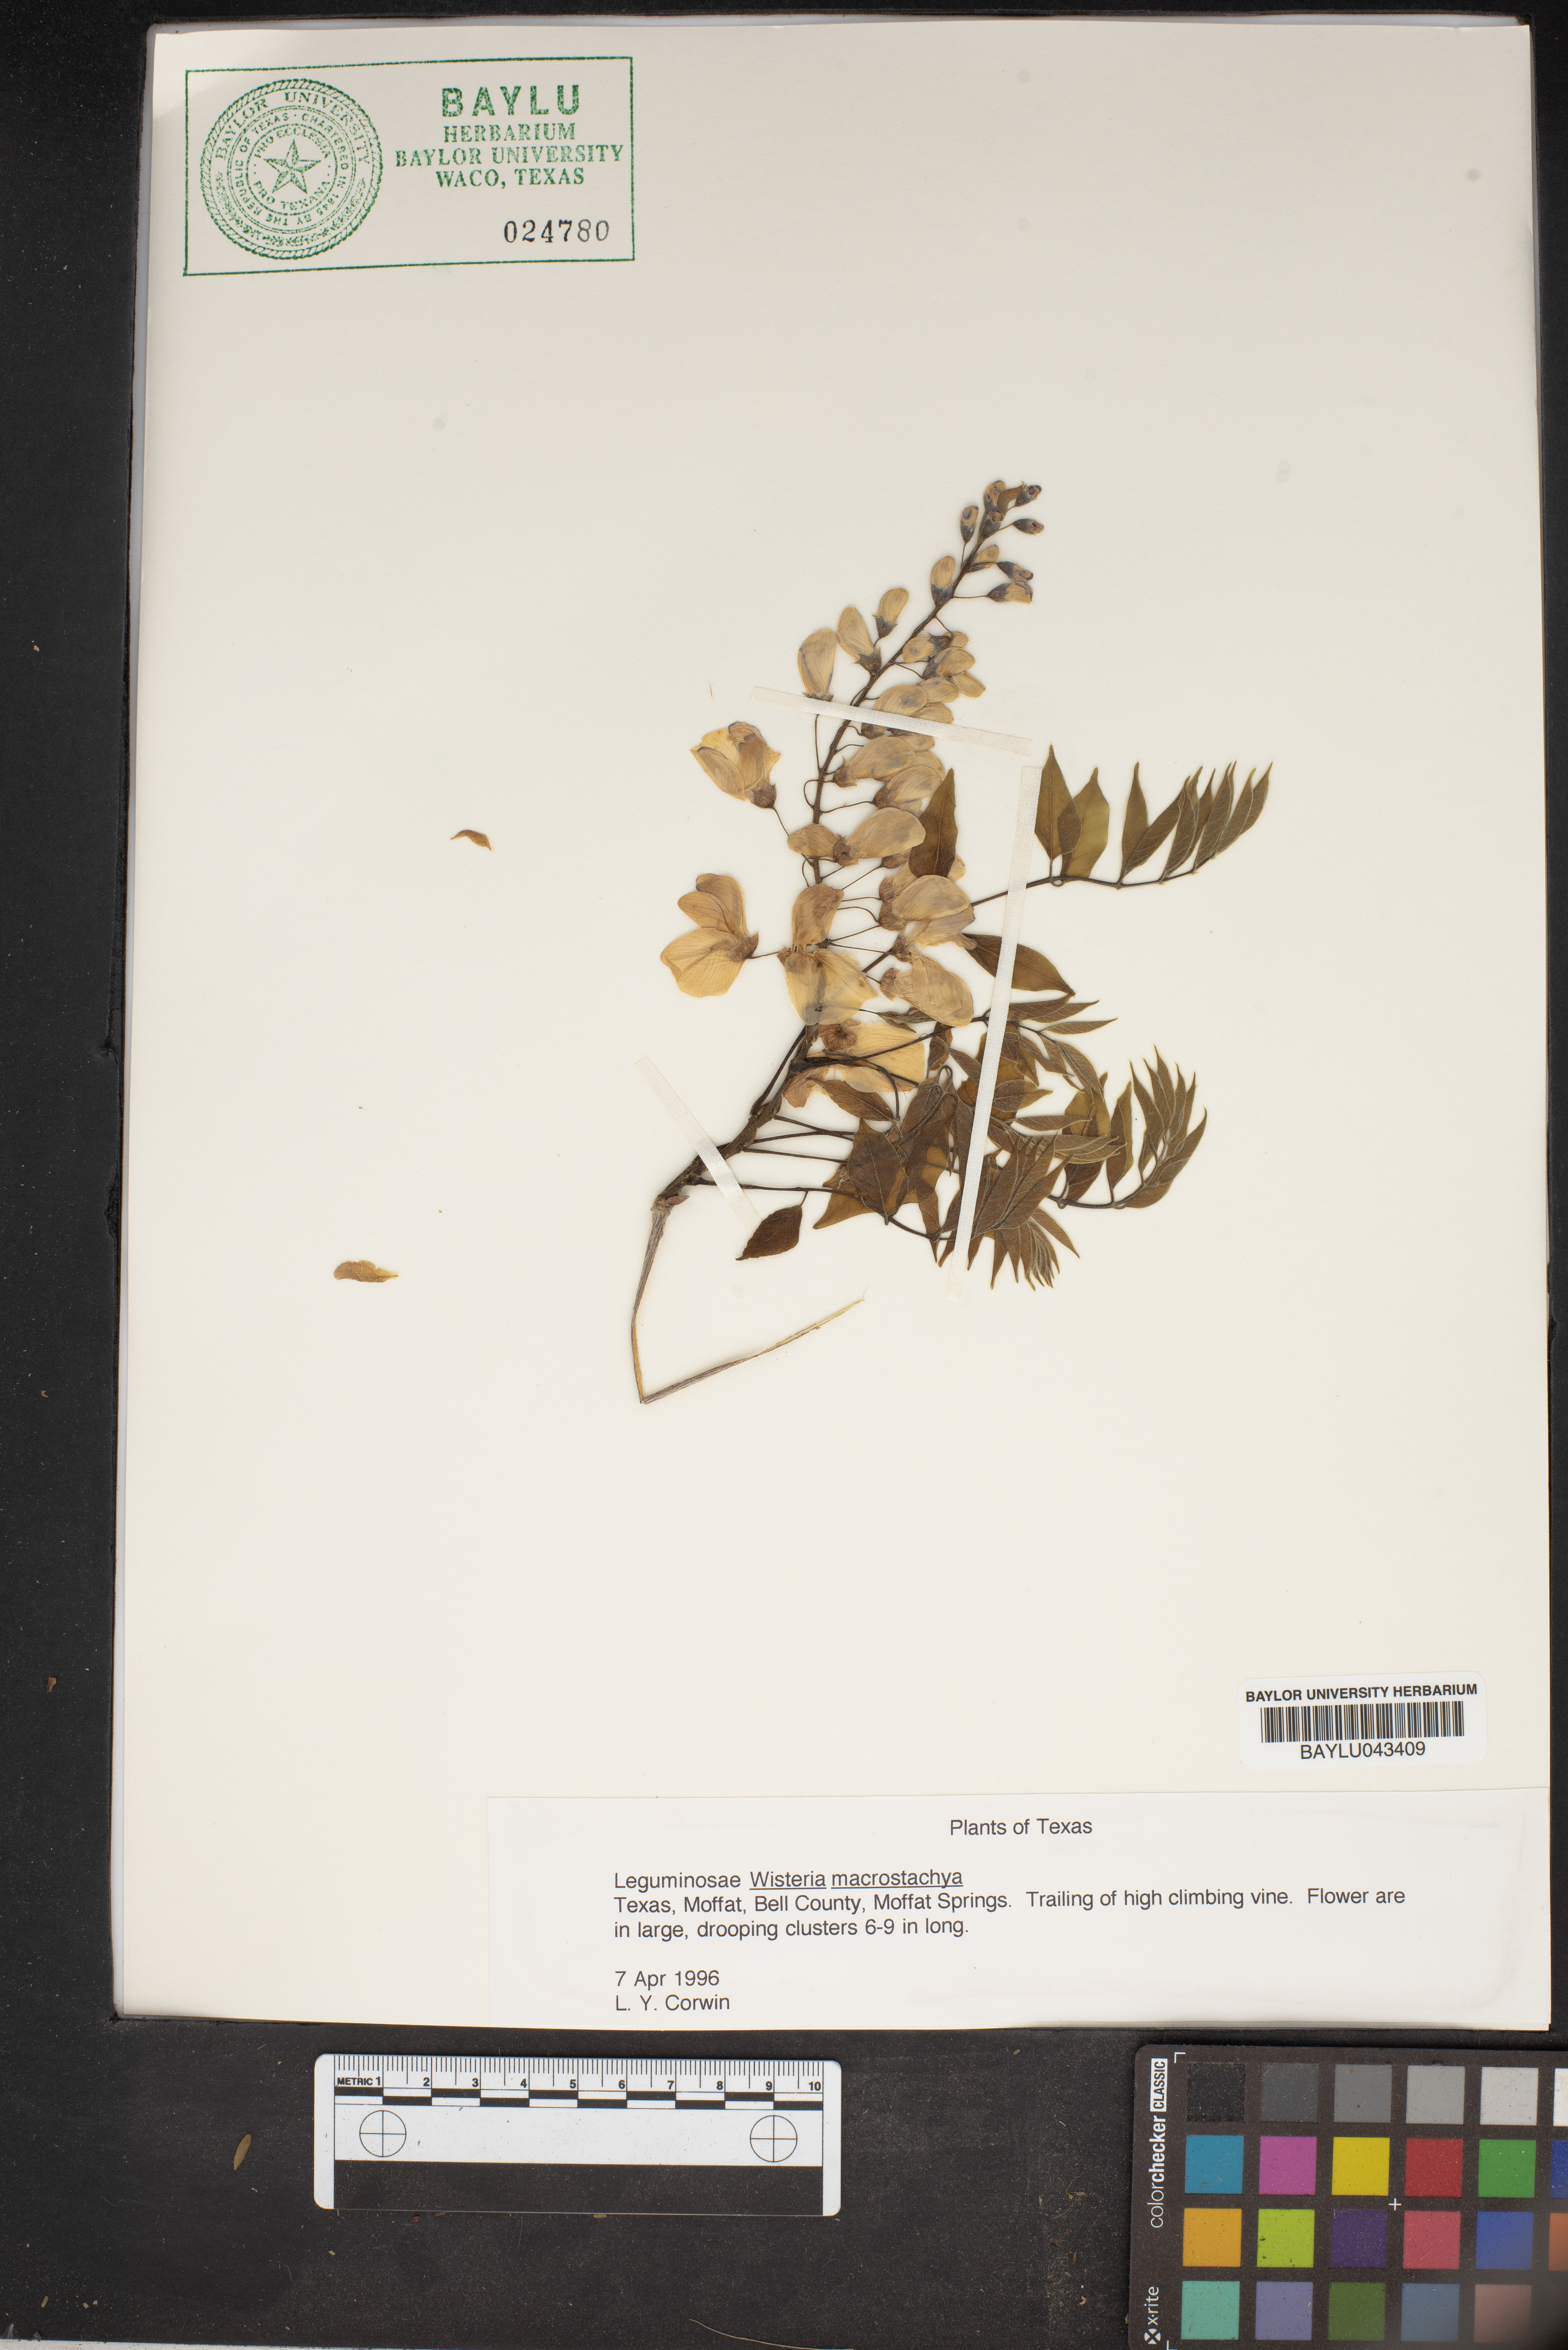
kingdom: Plantae
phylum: Tracheophyta
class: Magnoliopsida
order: Fabales
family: Fabaceae
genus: Wisteria
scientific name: Wisteria frutescens
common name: American wisteria
